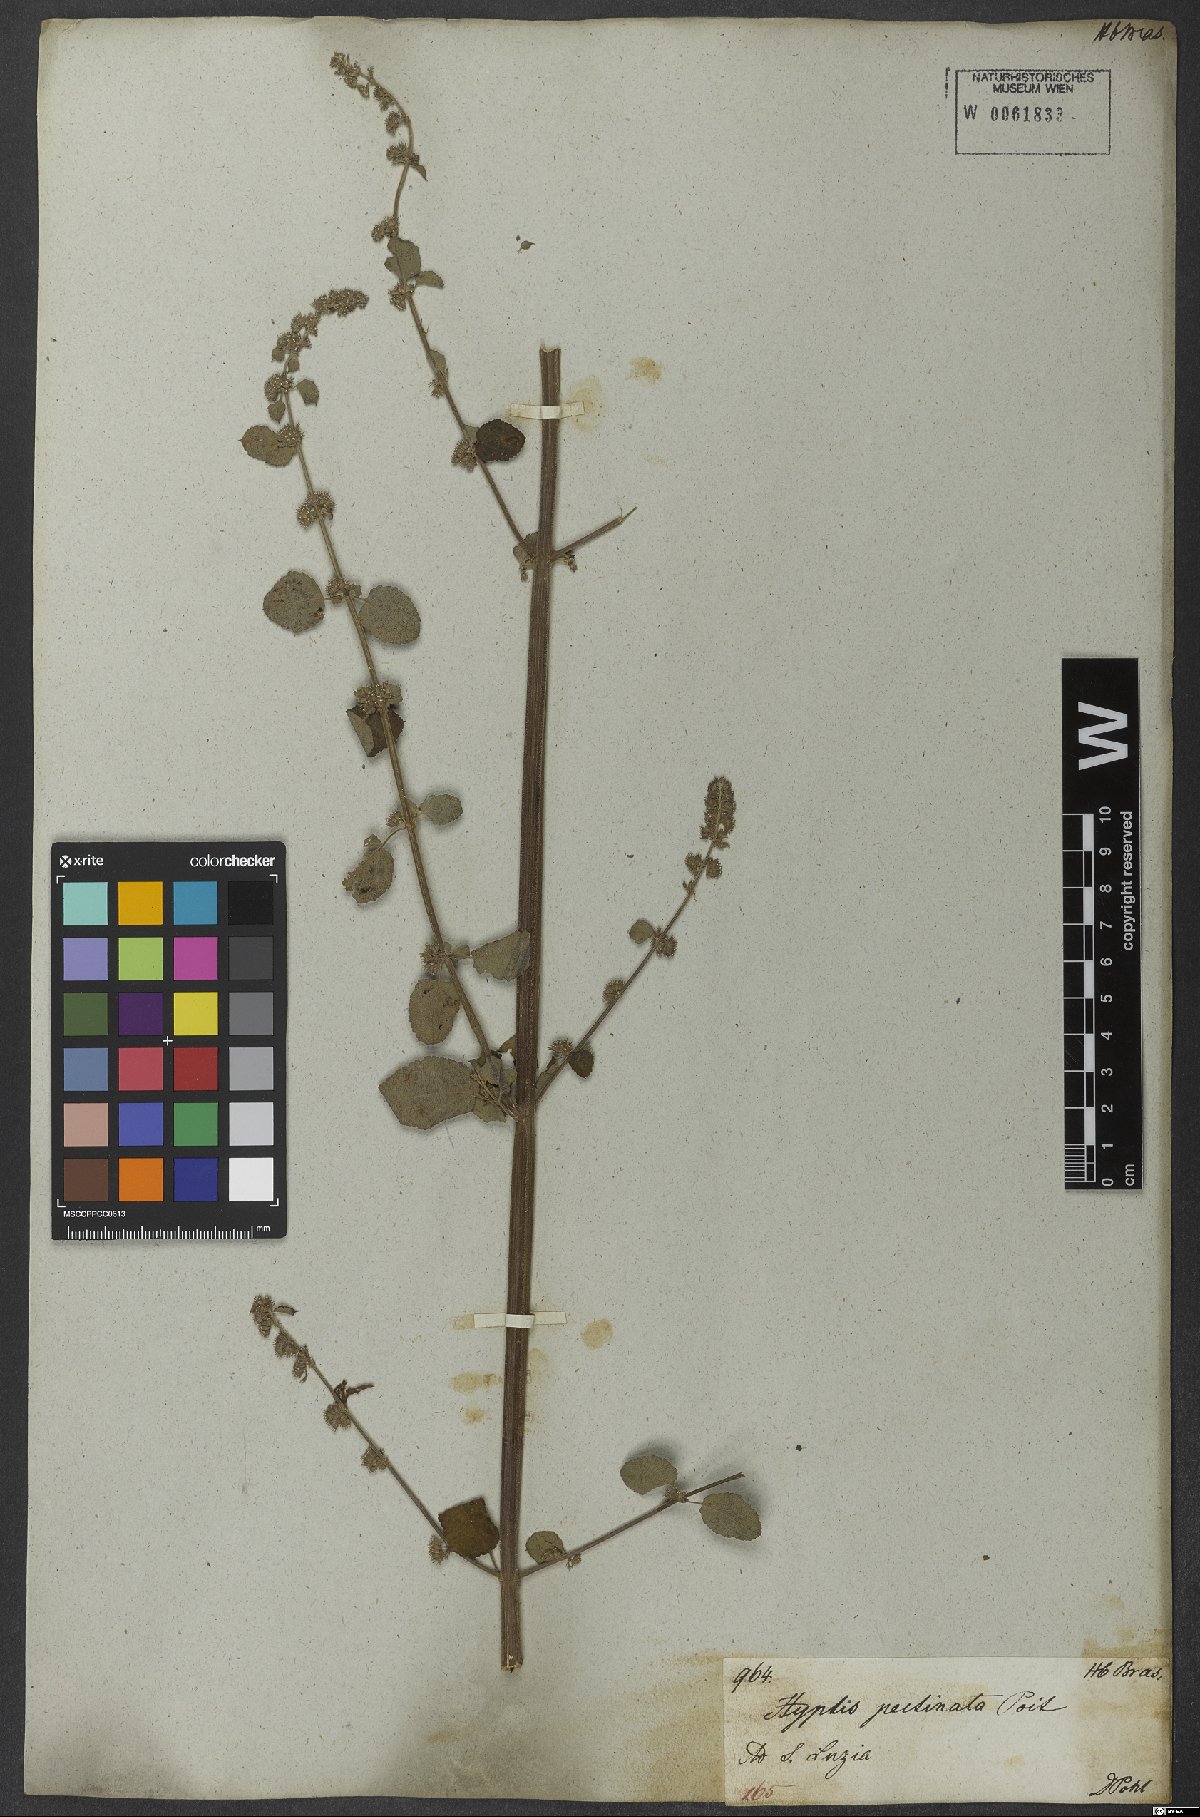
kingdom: Plantae
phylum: Tracheophyta
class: Magnoliopsida
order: Lamiales
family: Lamiaceae
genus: Mesosphaerum
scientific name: Mesosphaerum pectinatum
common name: Comb hyptis
